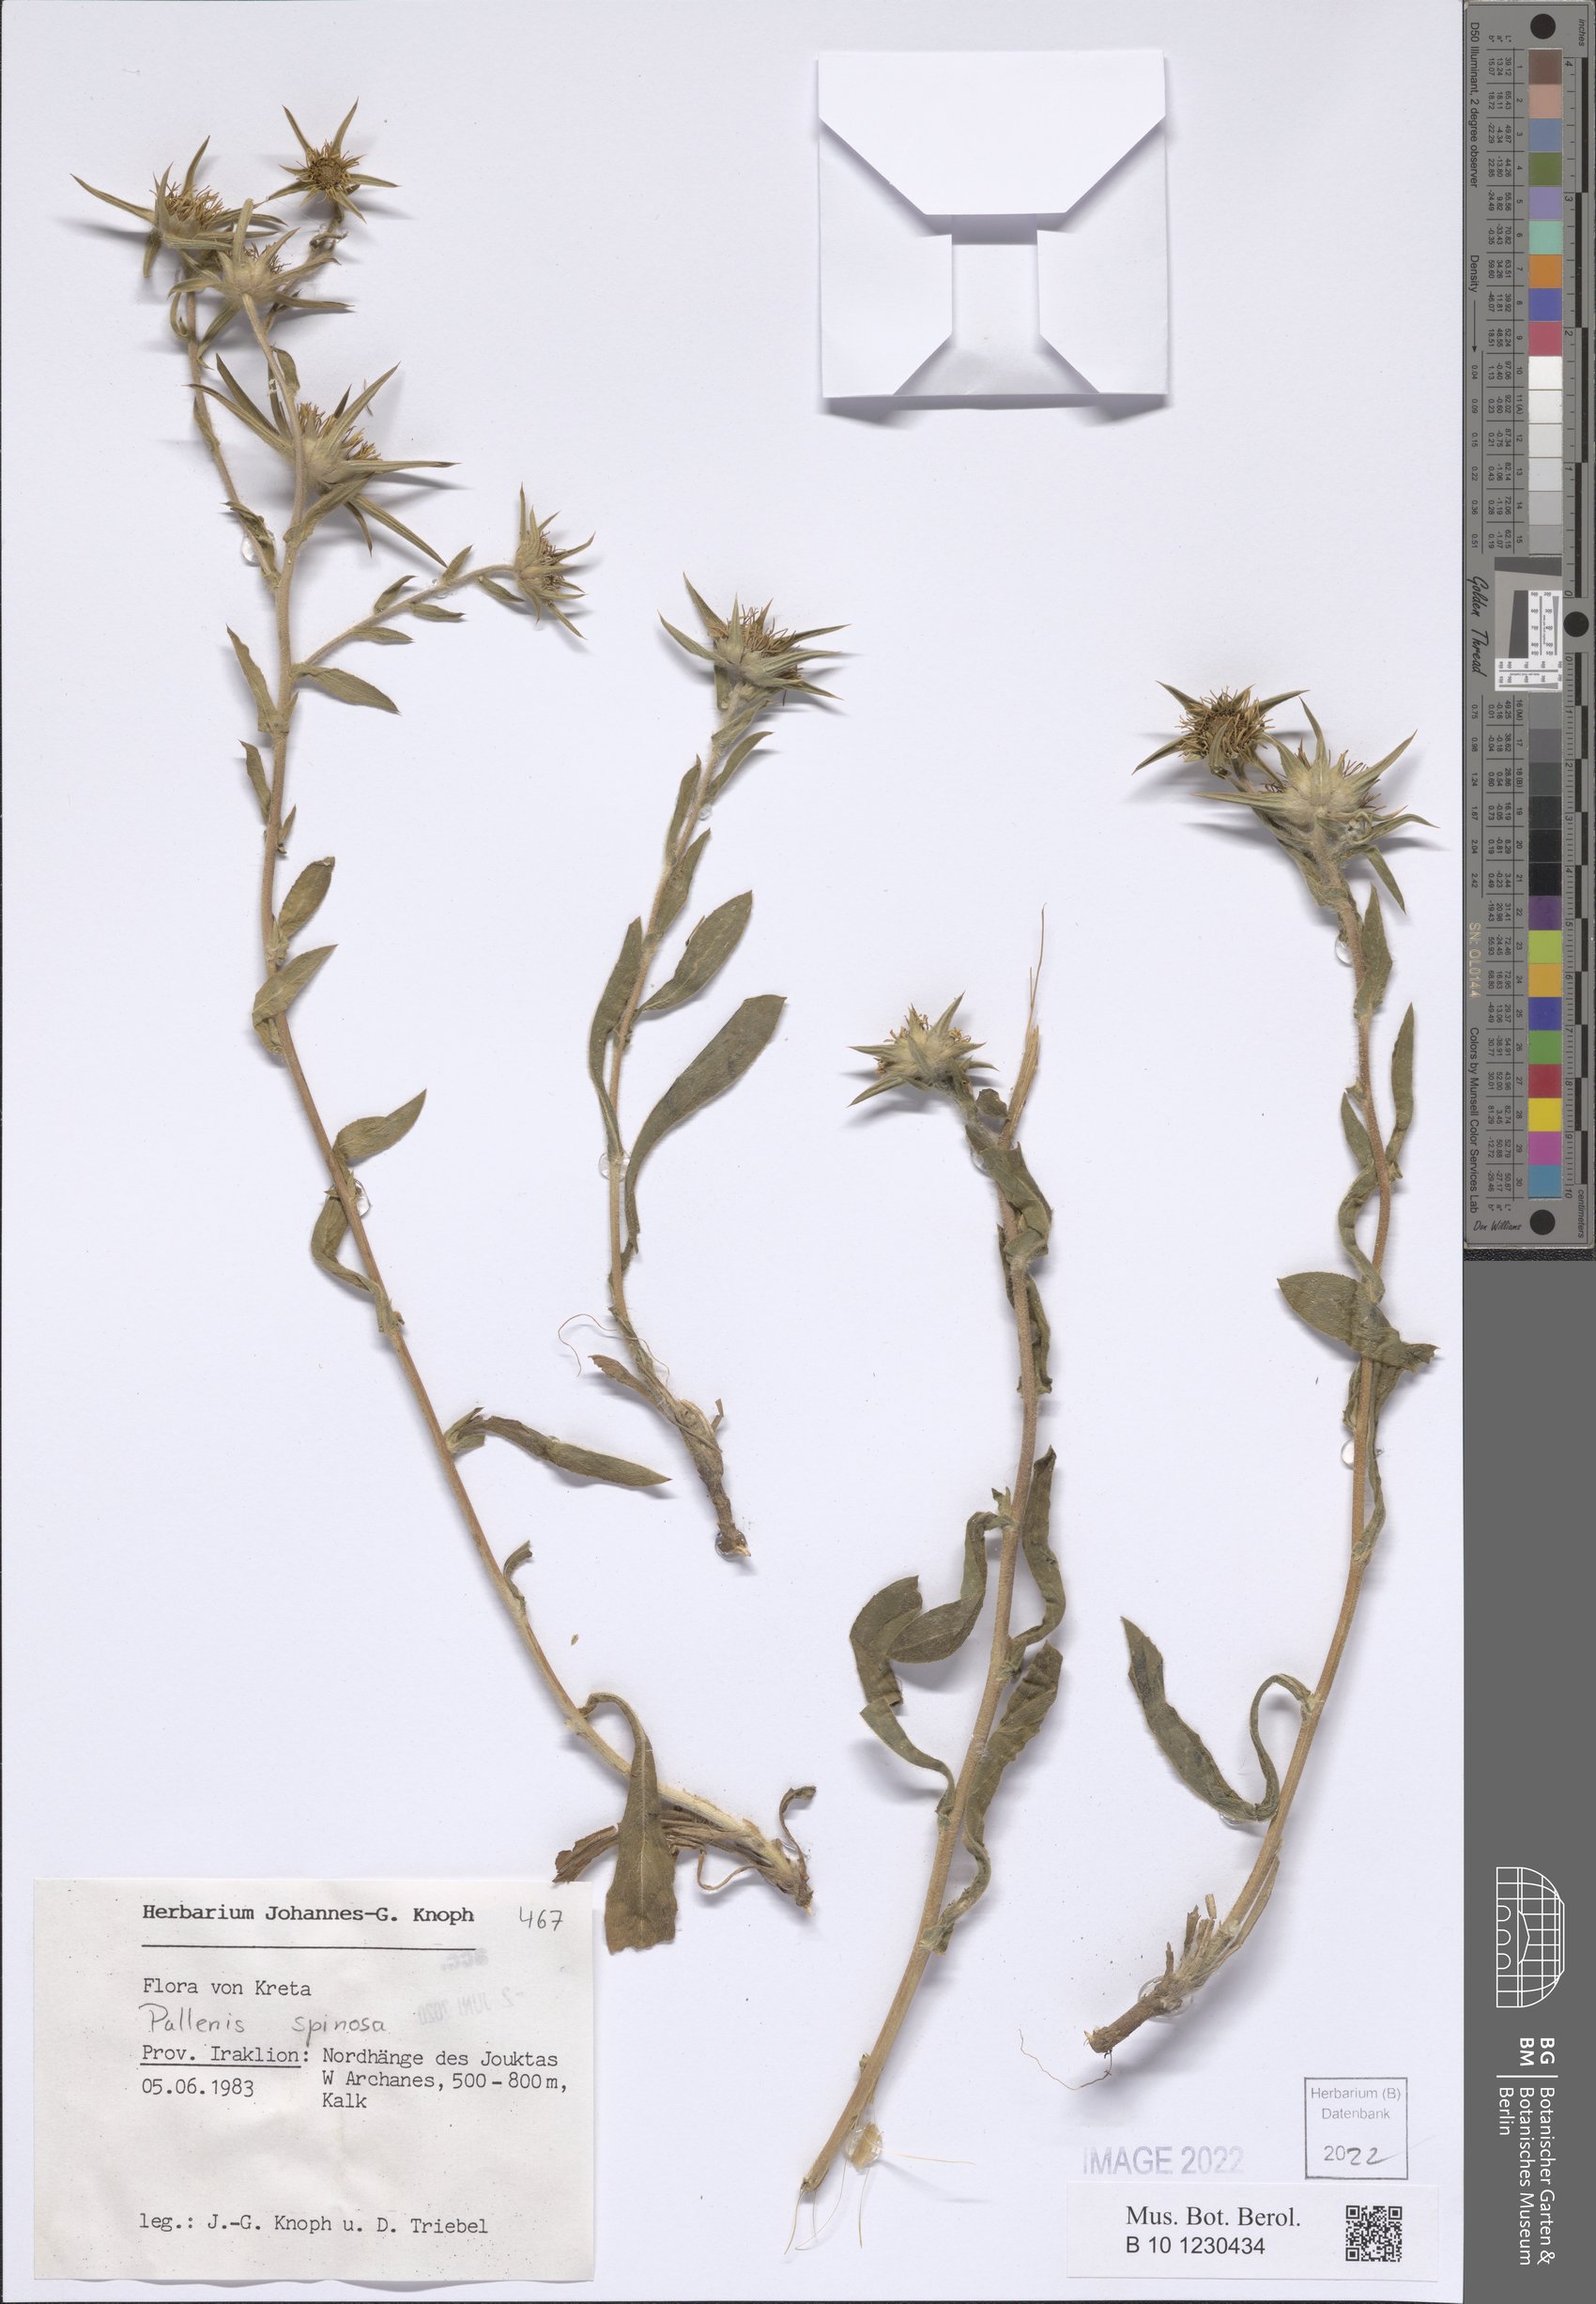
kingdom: Plantae
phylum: Tracheophyta
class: Magnoliopsida
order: Asterales
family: Asteraceae
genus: Pallenis
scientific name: Pallenis spinosa
